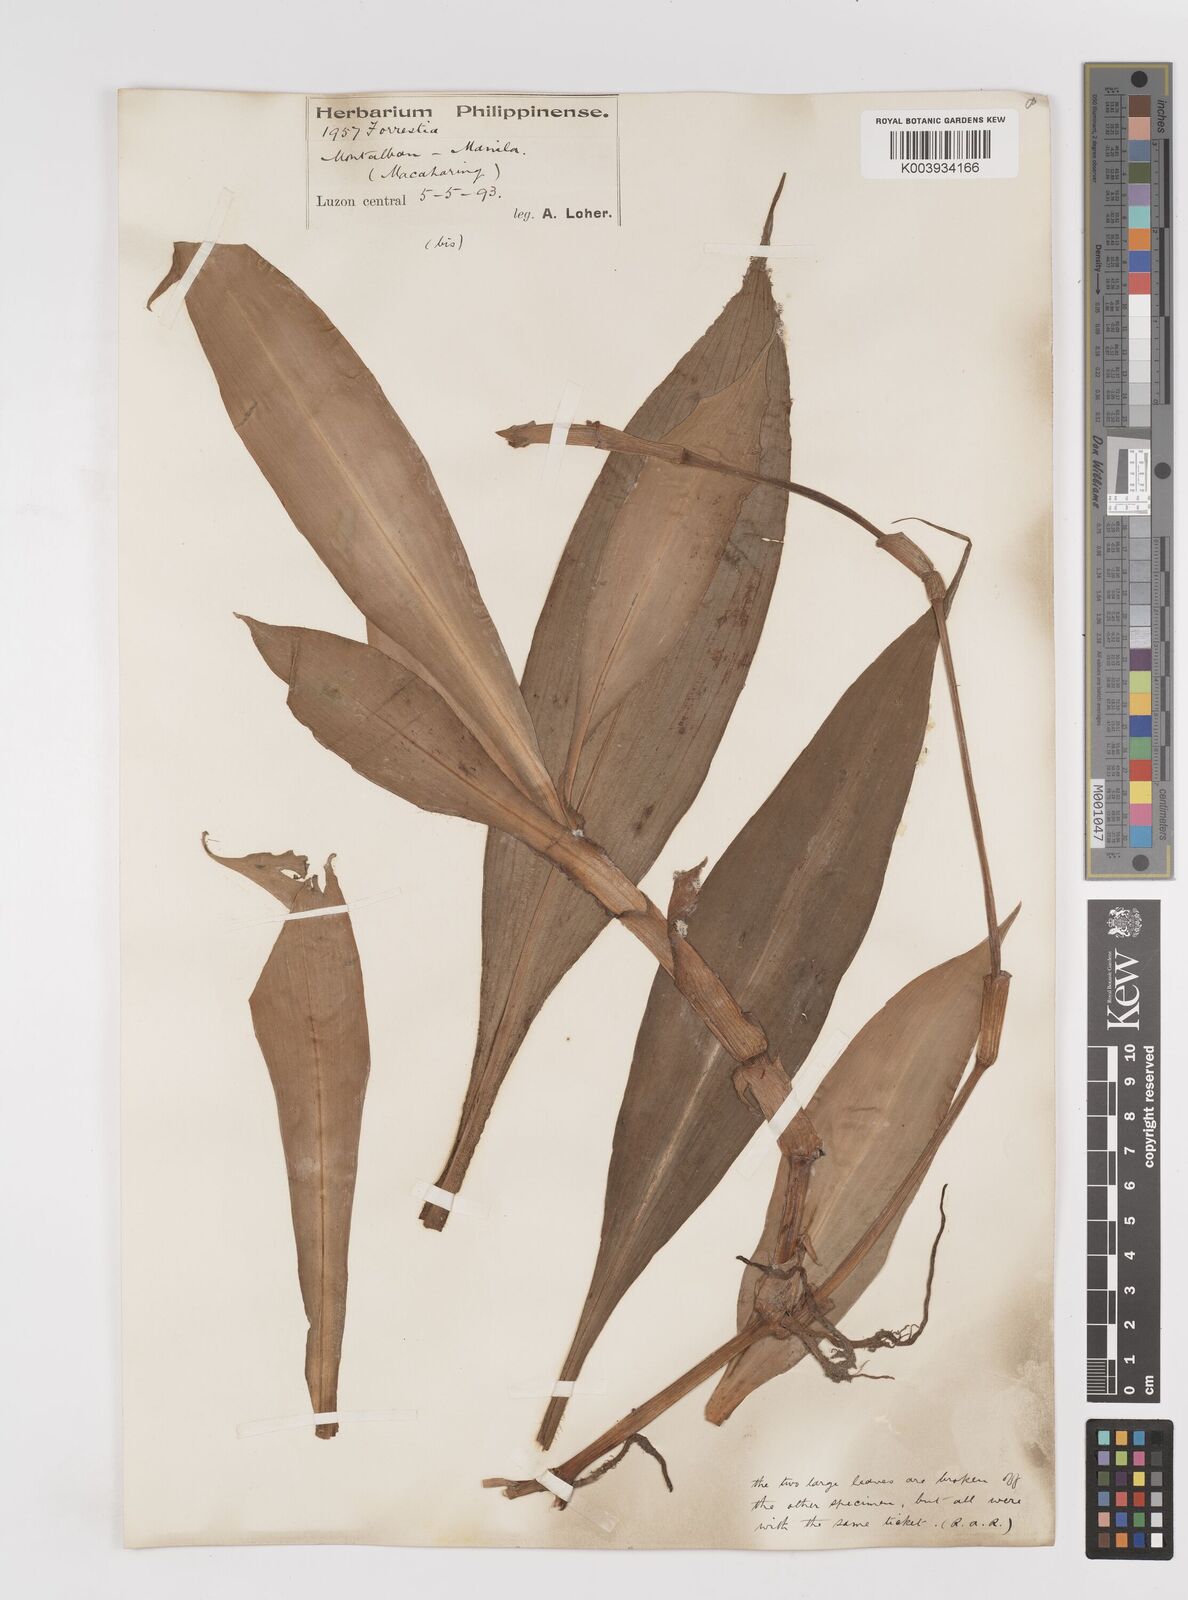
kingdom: Plantae
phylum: Tracheophyta
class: Liliopsida
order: Commelinales
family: Commelinaceae
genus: Amischotolype
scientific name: Amischotolype
